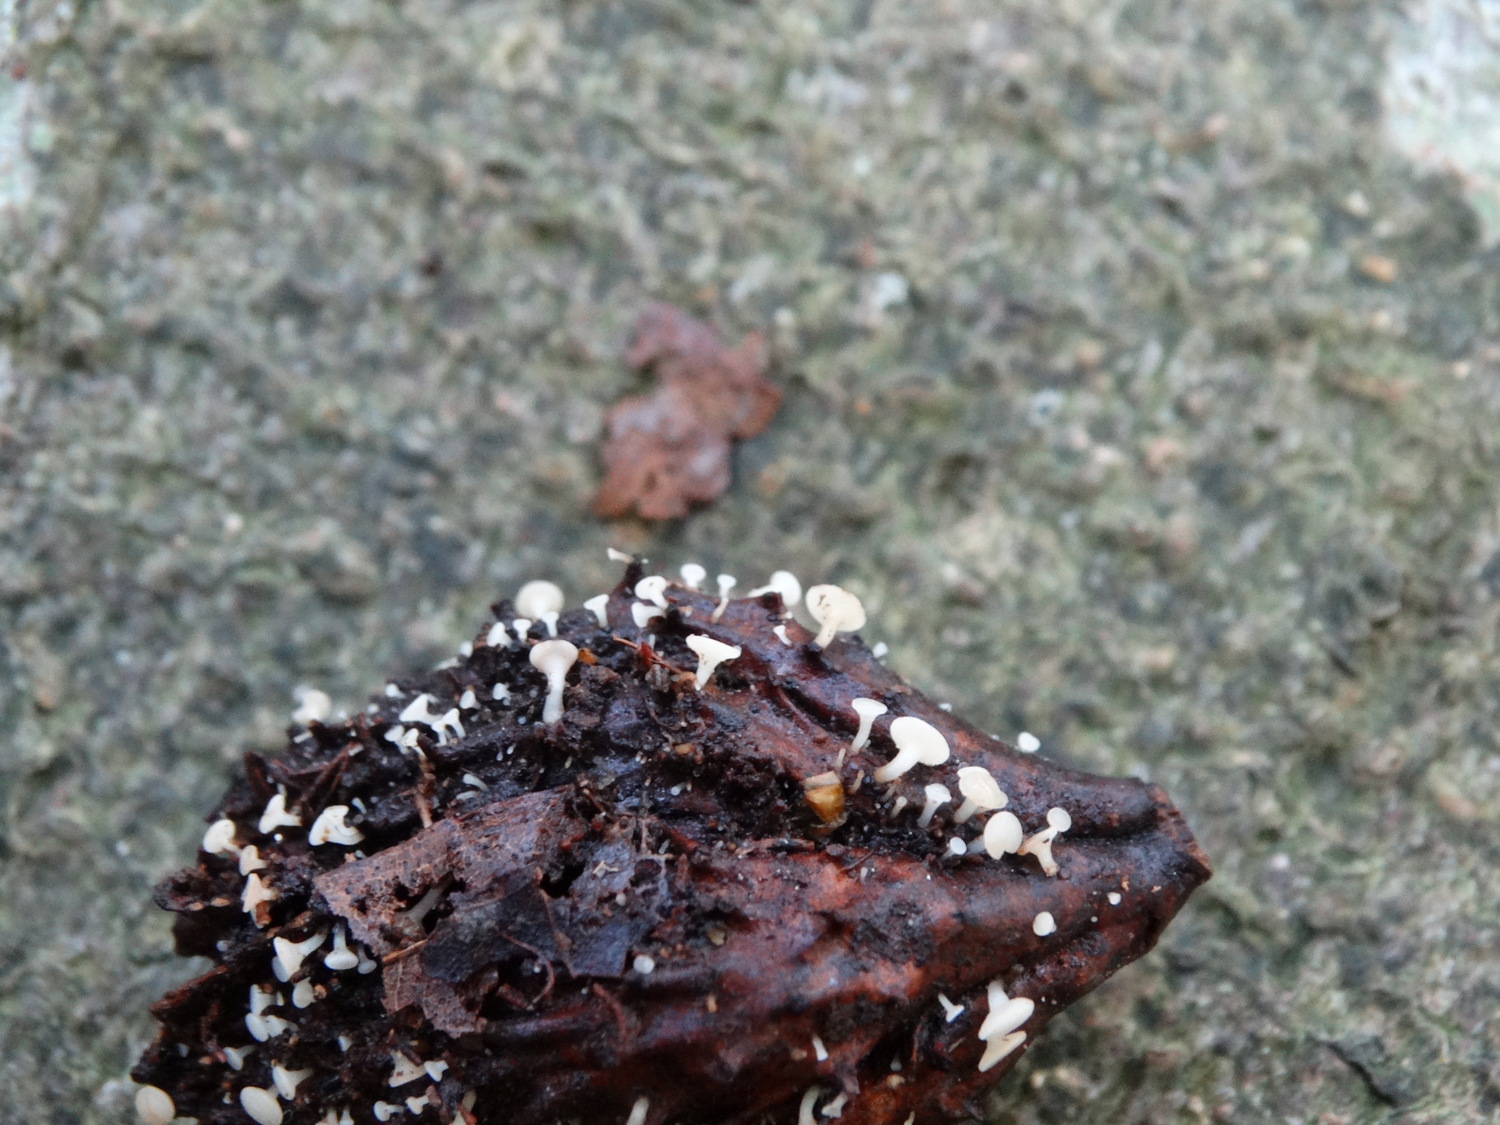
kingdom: Fungi
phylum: Ascomycota
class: Leotiomycetes
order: Helotiales
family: Helotiaceae
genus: Hymenoscyphus
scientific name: Hymenoscyphus
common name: stilkskive
